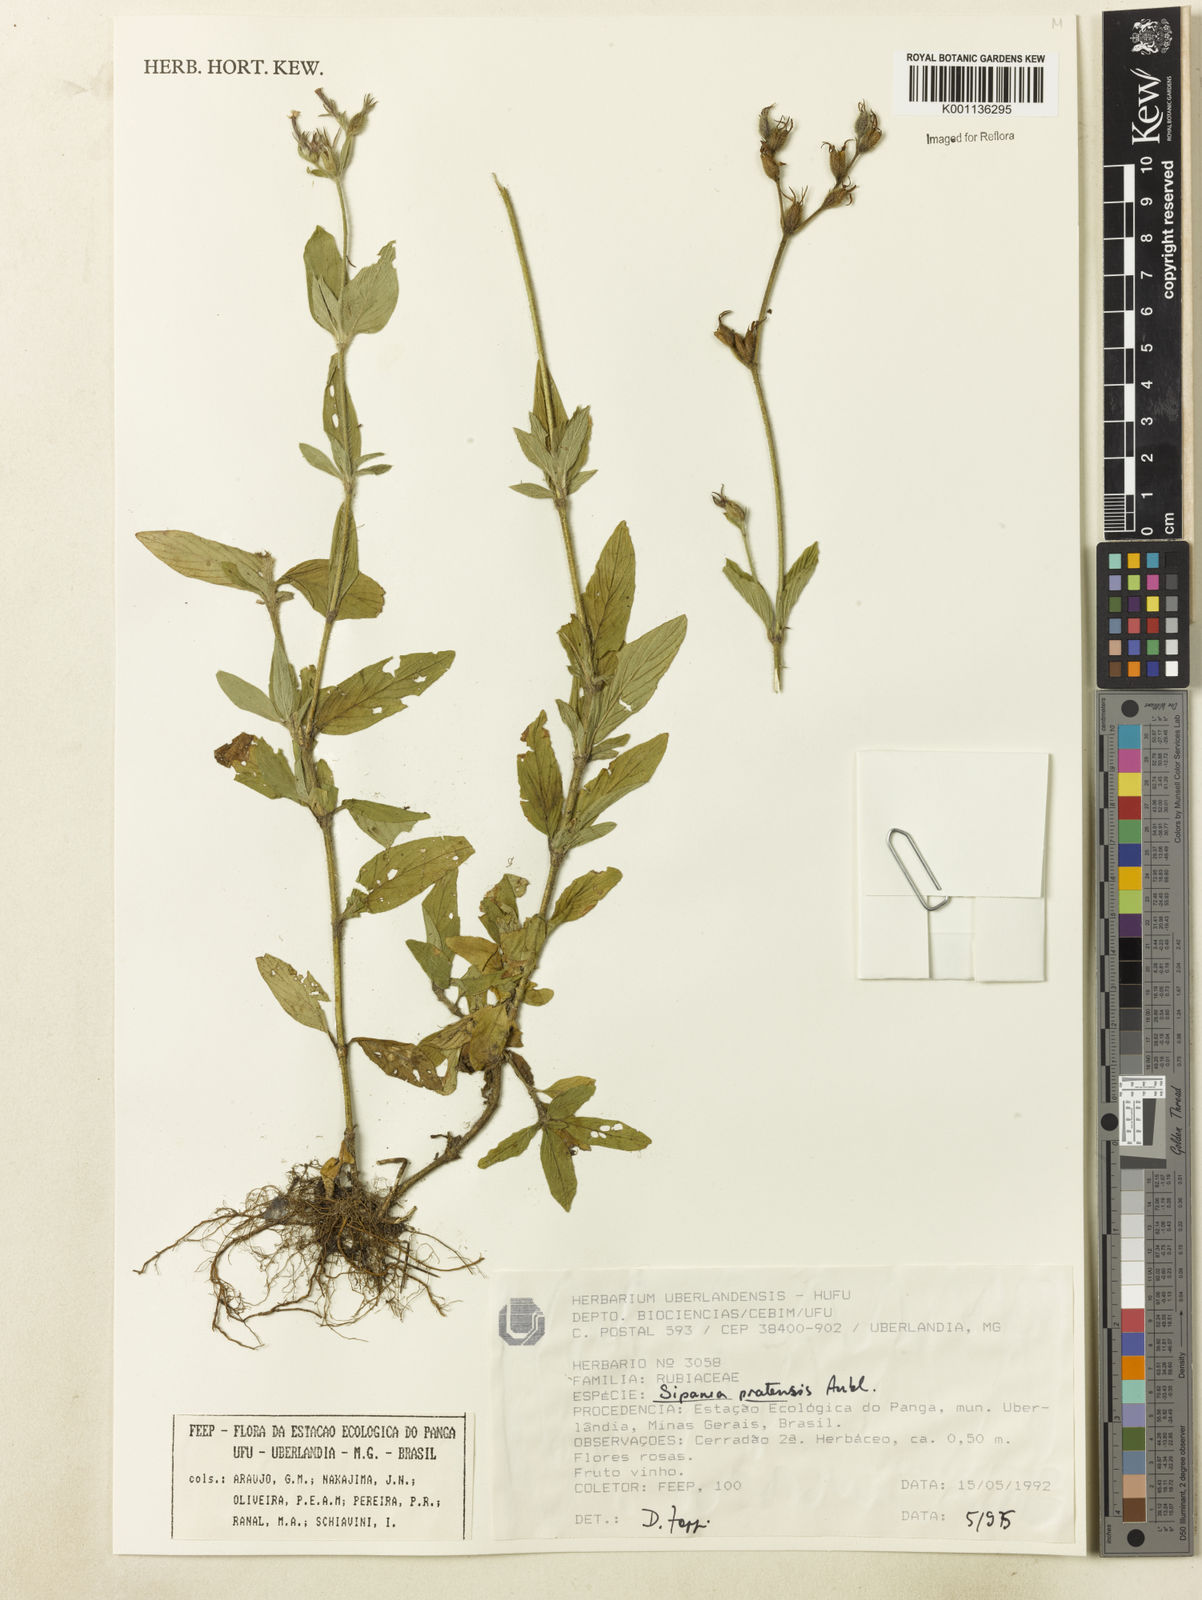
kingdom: Plantae
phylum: Tracheophyta
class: Magnoliopsida
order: Gentianales
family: Rubiaceae
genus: Sipanea
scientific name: Sipanea pratensis
